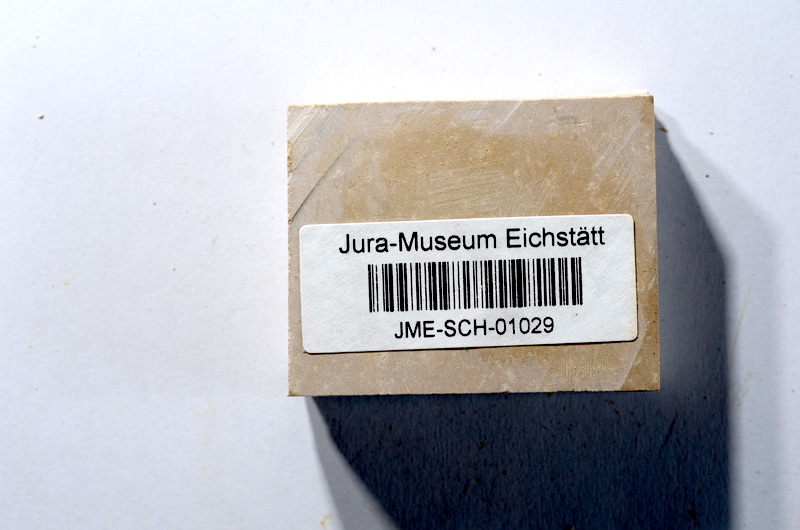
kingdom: Animalia
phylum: Chordata
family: Ascalaboidae
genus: Tharsis
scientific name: Tharsis dubius
